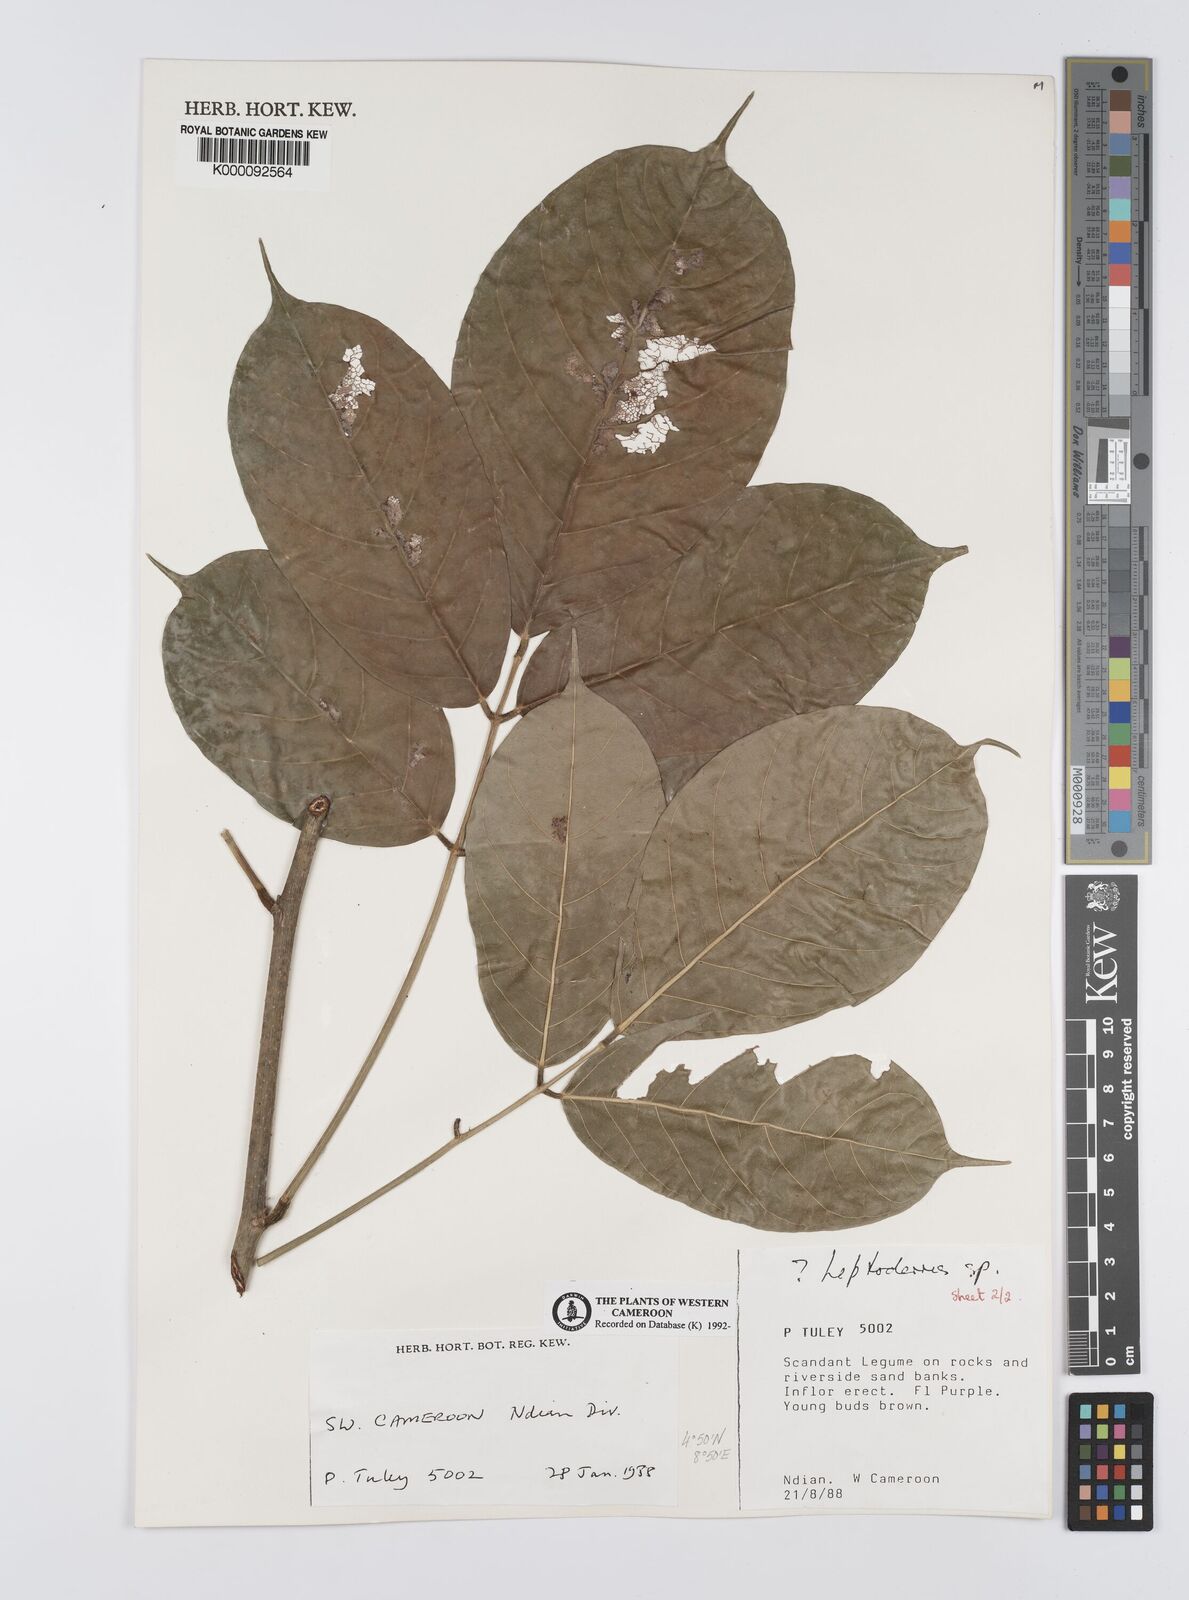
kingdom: Plantae
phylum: Tracheophyta
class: Magnoliopsida
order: Fabales
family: Fabaceae
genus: Leptoderris
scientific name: Leptoderris
